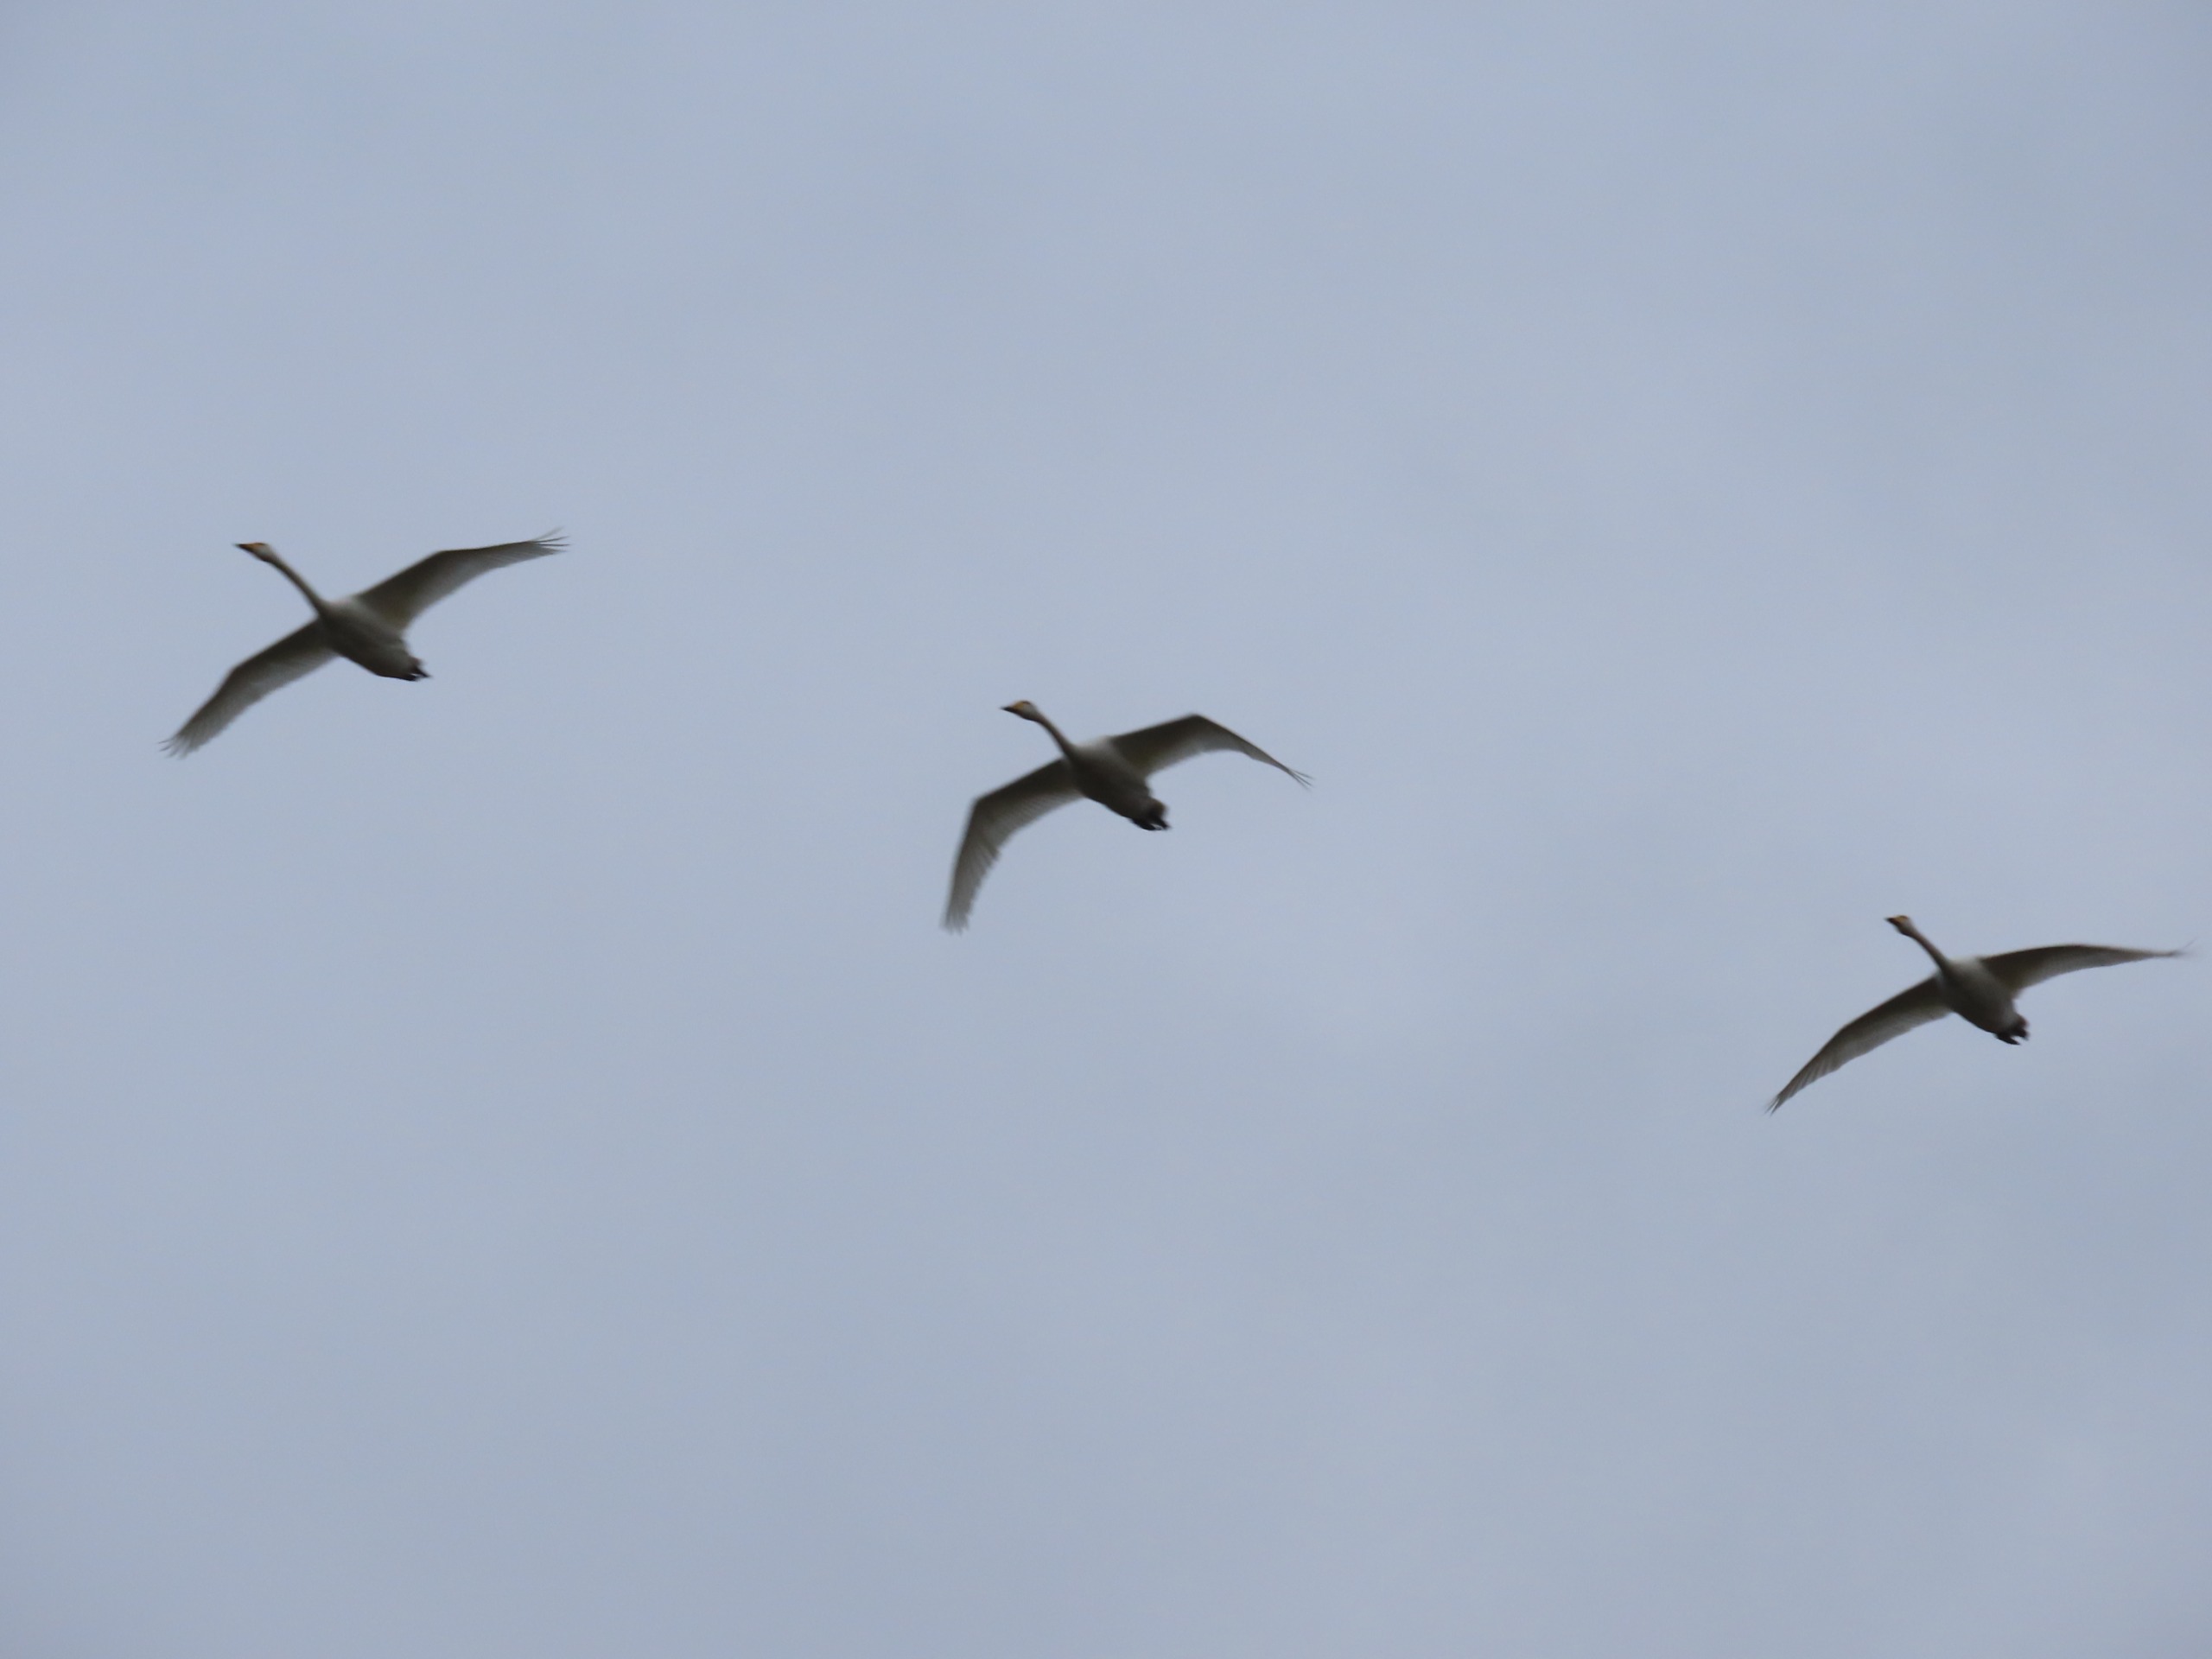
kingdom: Animalia
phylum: Chordata
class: Aves
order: Anseriformes
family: Anatidae
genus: Cygnus
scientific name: Cygnus cygnus
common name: Sangsvane
